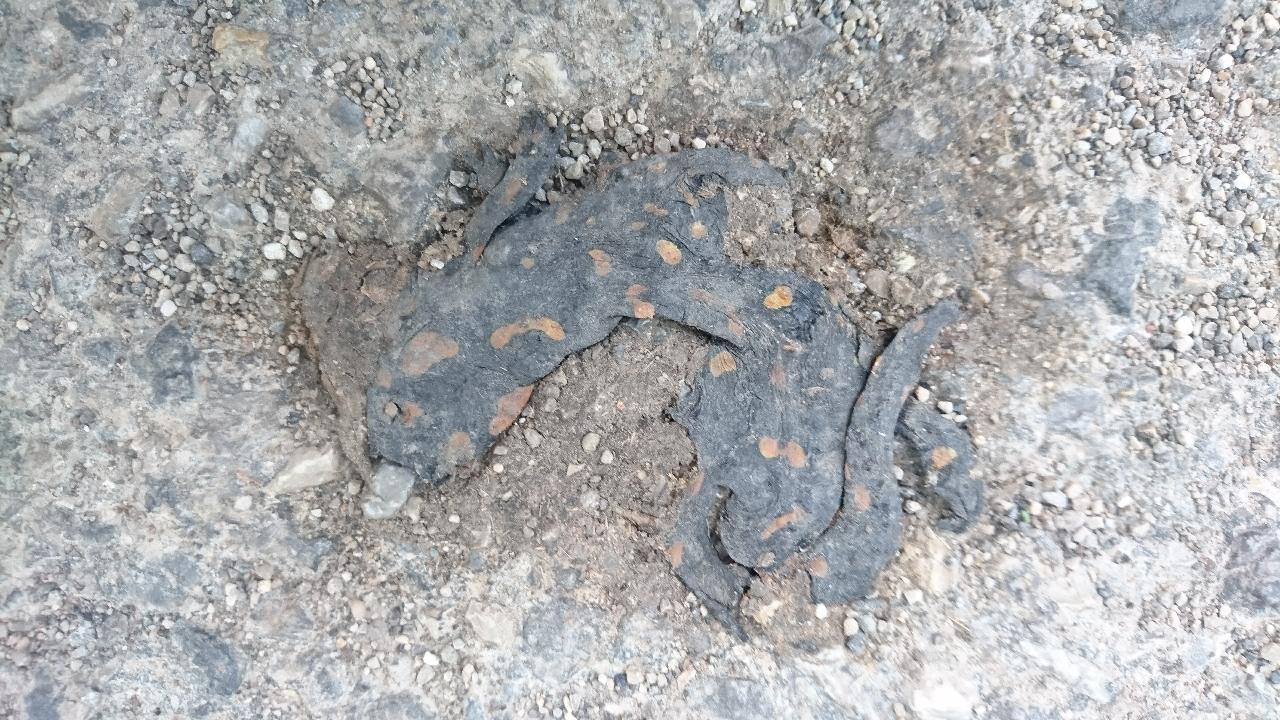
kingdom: Animalia
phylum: Chordata
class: Amphibia
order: Caudata
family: Salamandridae
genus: Salamandra
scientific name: Salamandra salamandra
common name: Fire salamander
